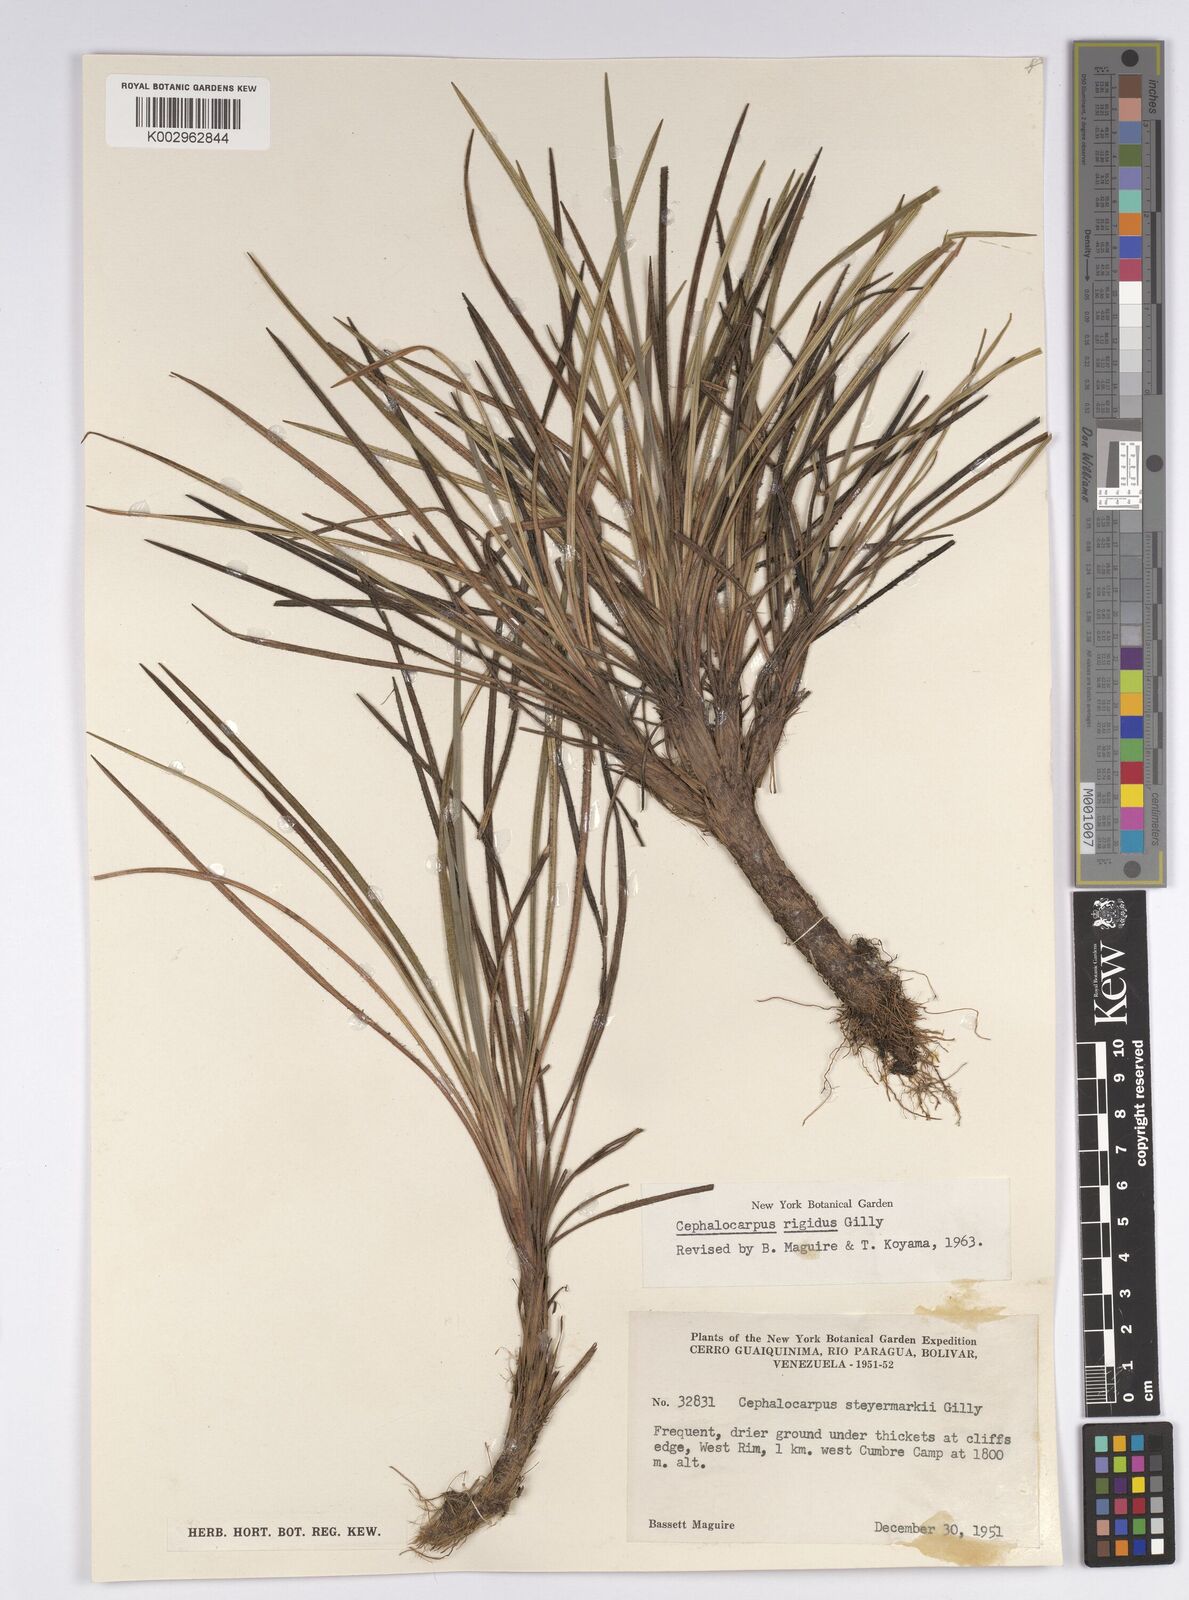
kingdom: Plantae
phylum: Tracheophyta
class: Liliopsida
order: Poales
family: Cyperaceae
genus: Cephalocarpus
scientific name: Cephalocarpus rigidus
